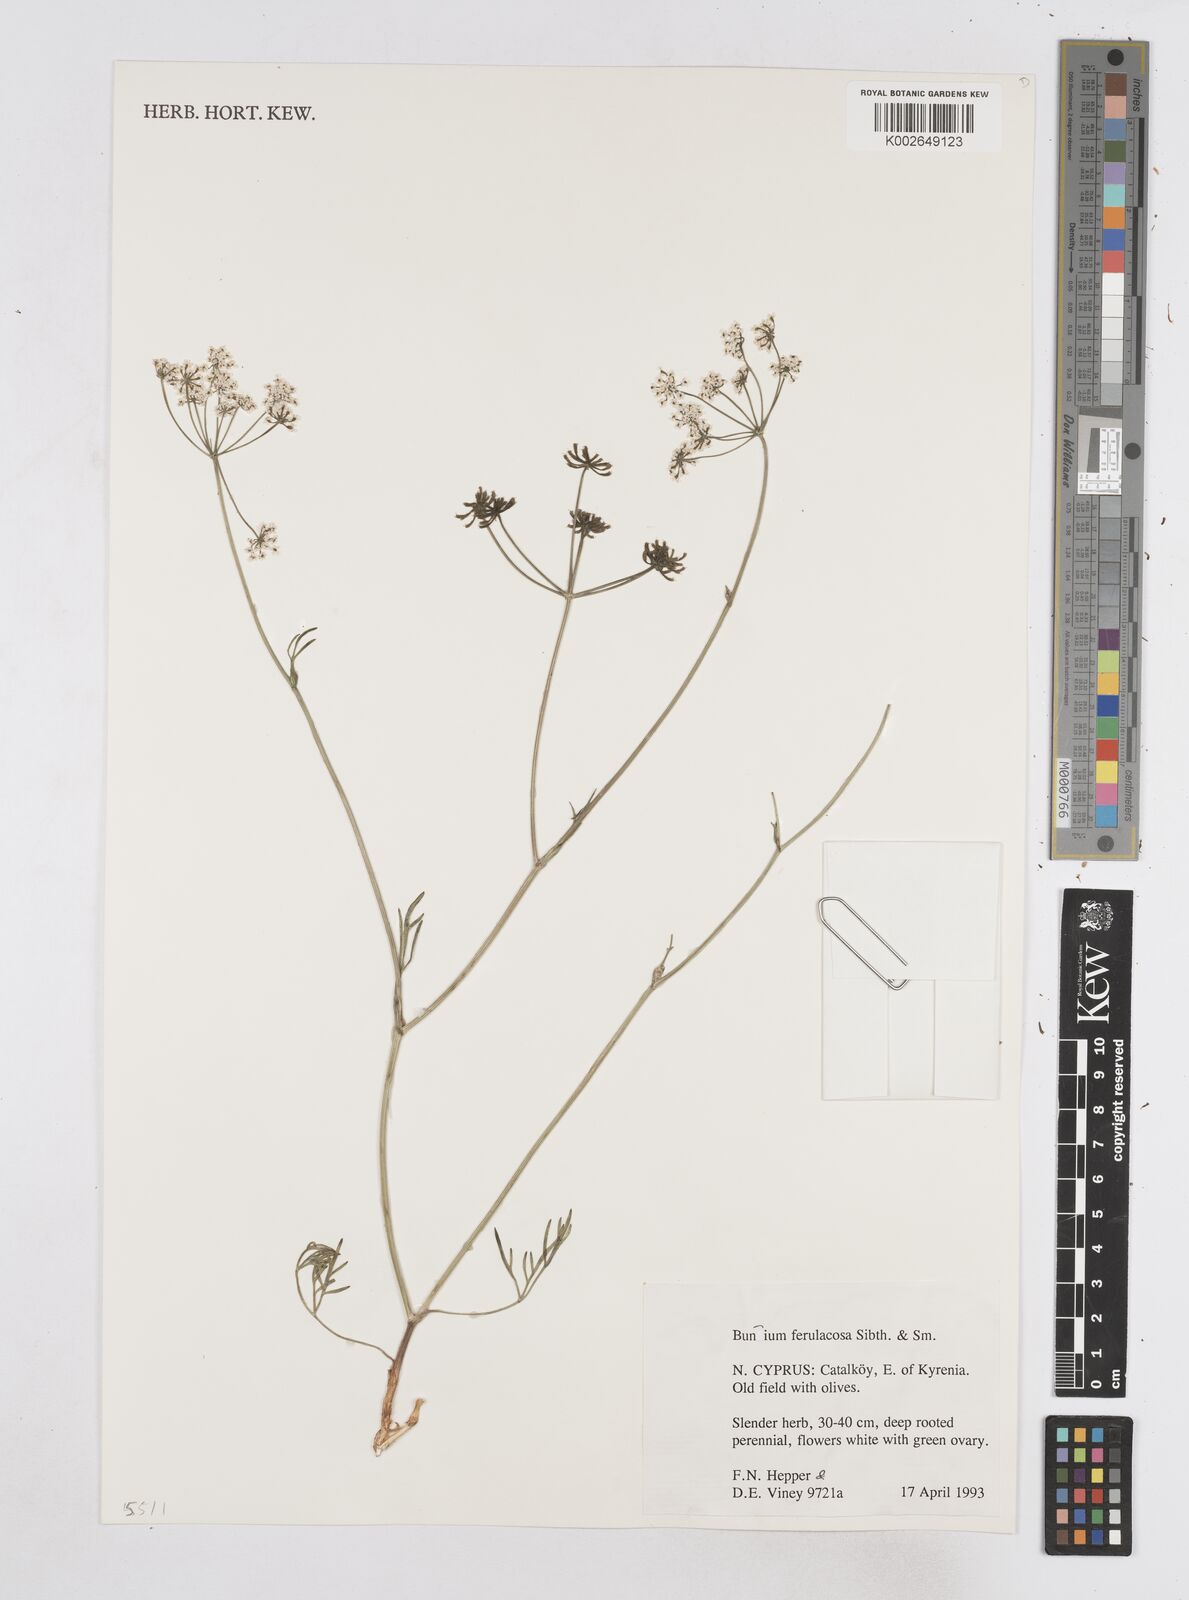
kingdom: Plantae
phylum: Tracheophyta
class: Magnoliopsida
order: Apiales
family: Apiaceae
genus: Bunium
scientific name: Bunium ferulaceum
